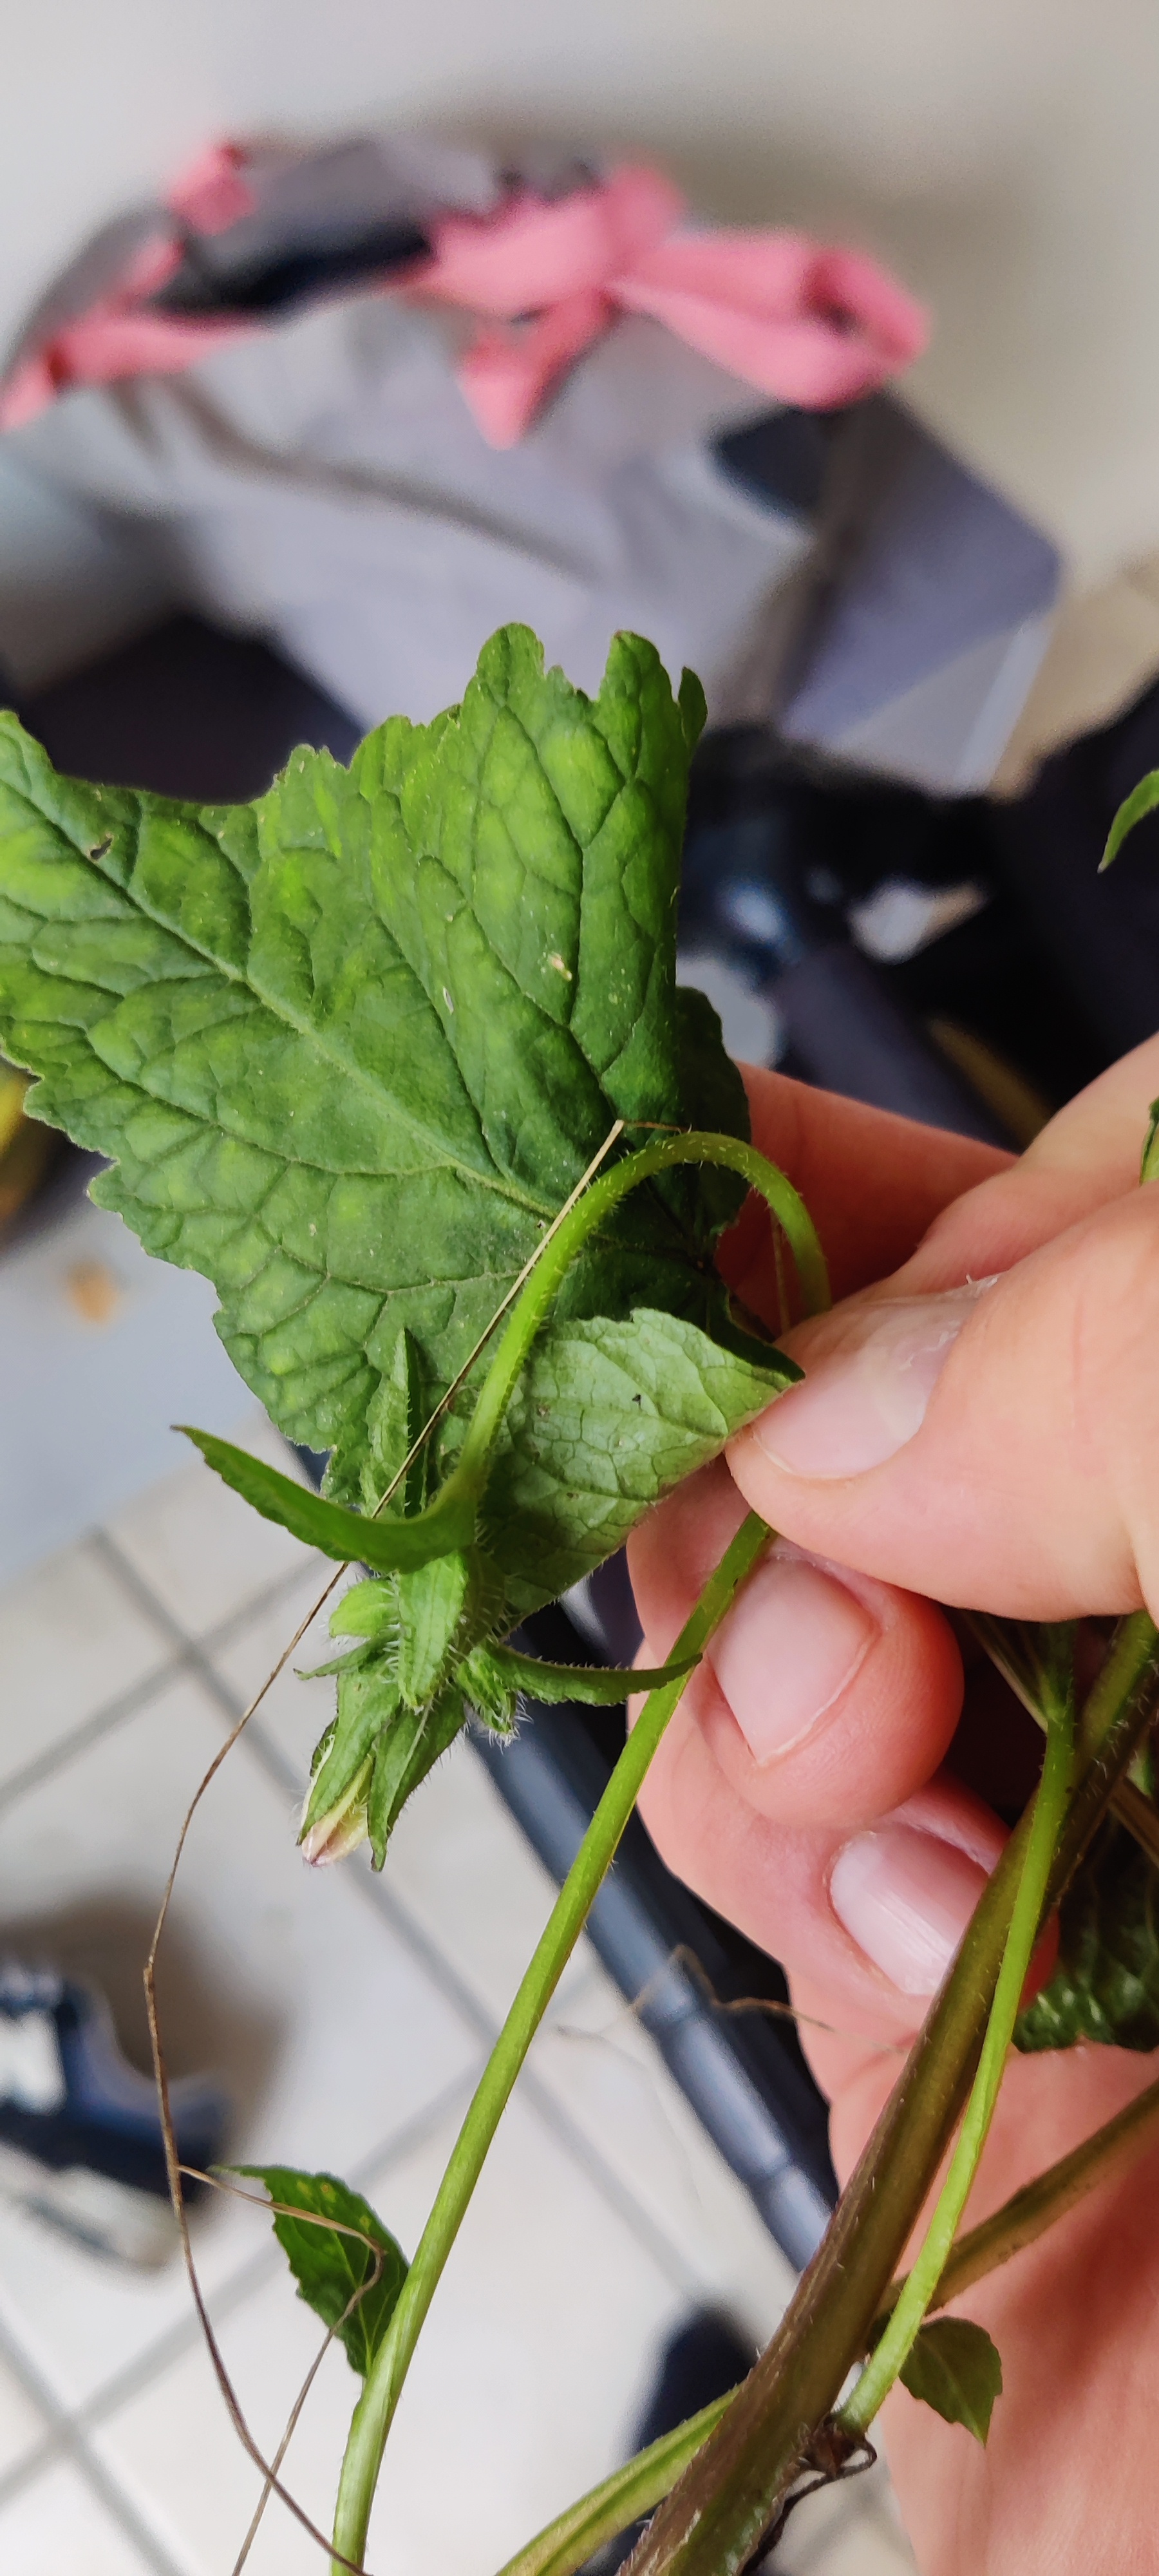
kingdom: Plantae
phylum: Tracheophyta
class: Magnoliopsida
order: Asterales
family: Campanulaceae
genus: Campanula
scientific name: Campanula trachelium
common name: Nælde-klokke
